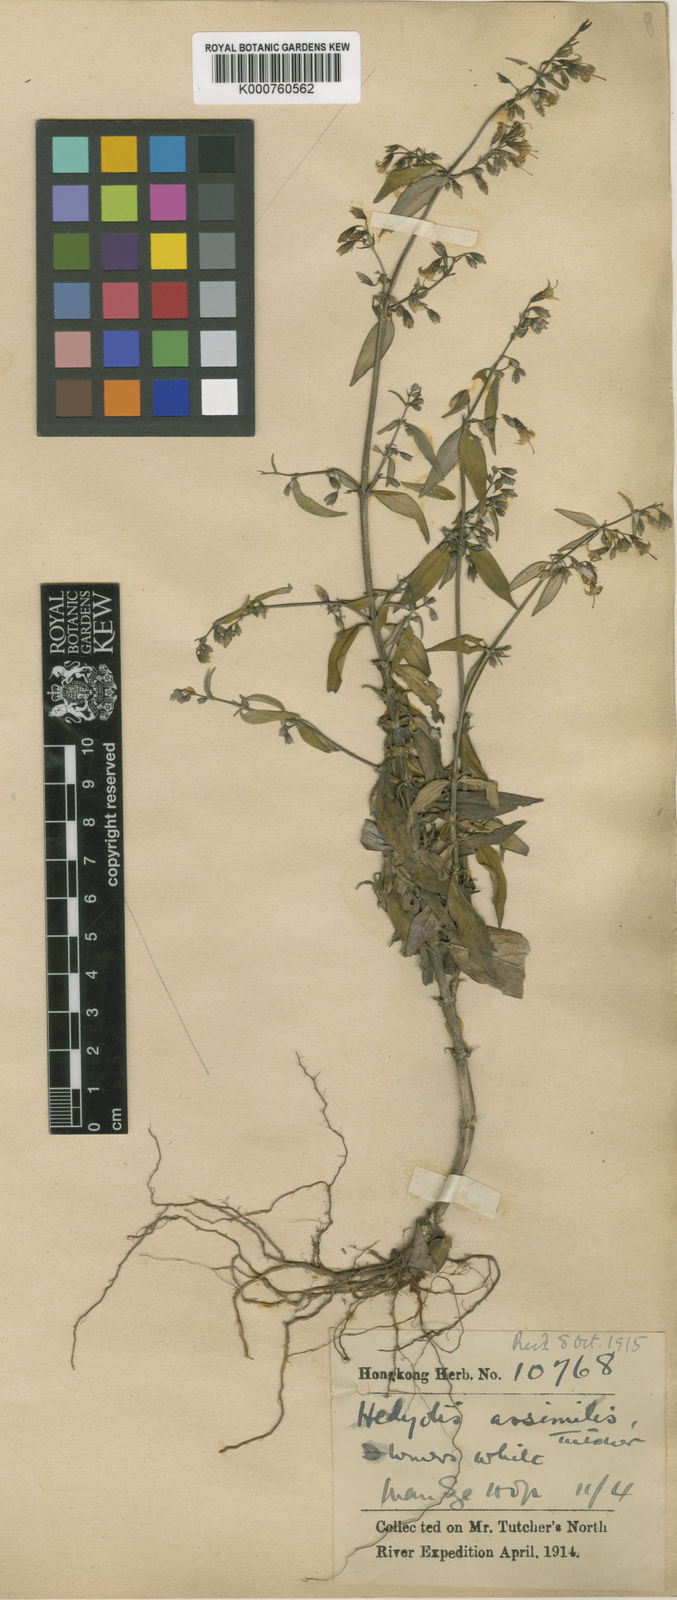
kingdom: Plantae
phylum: Tracheophyta
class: Magnoliopsida
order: Gentianales
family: Rubiaceae
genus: Hedyotis
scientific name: Hedyotis matthewii
